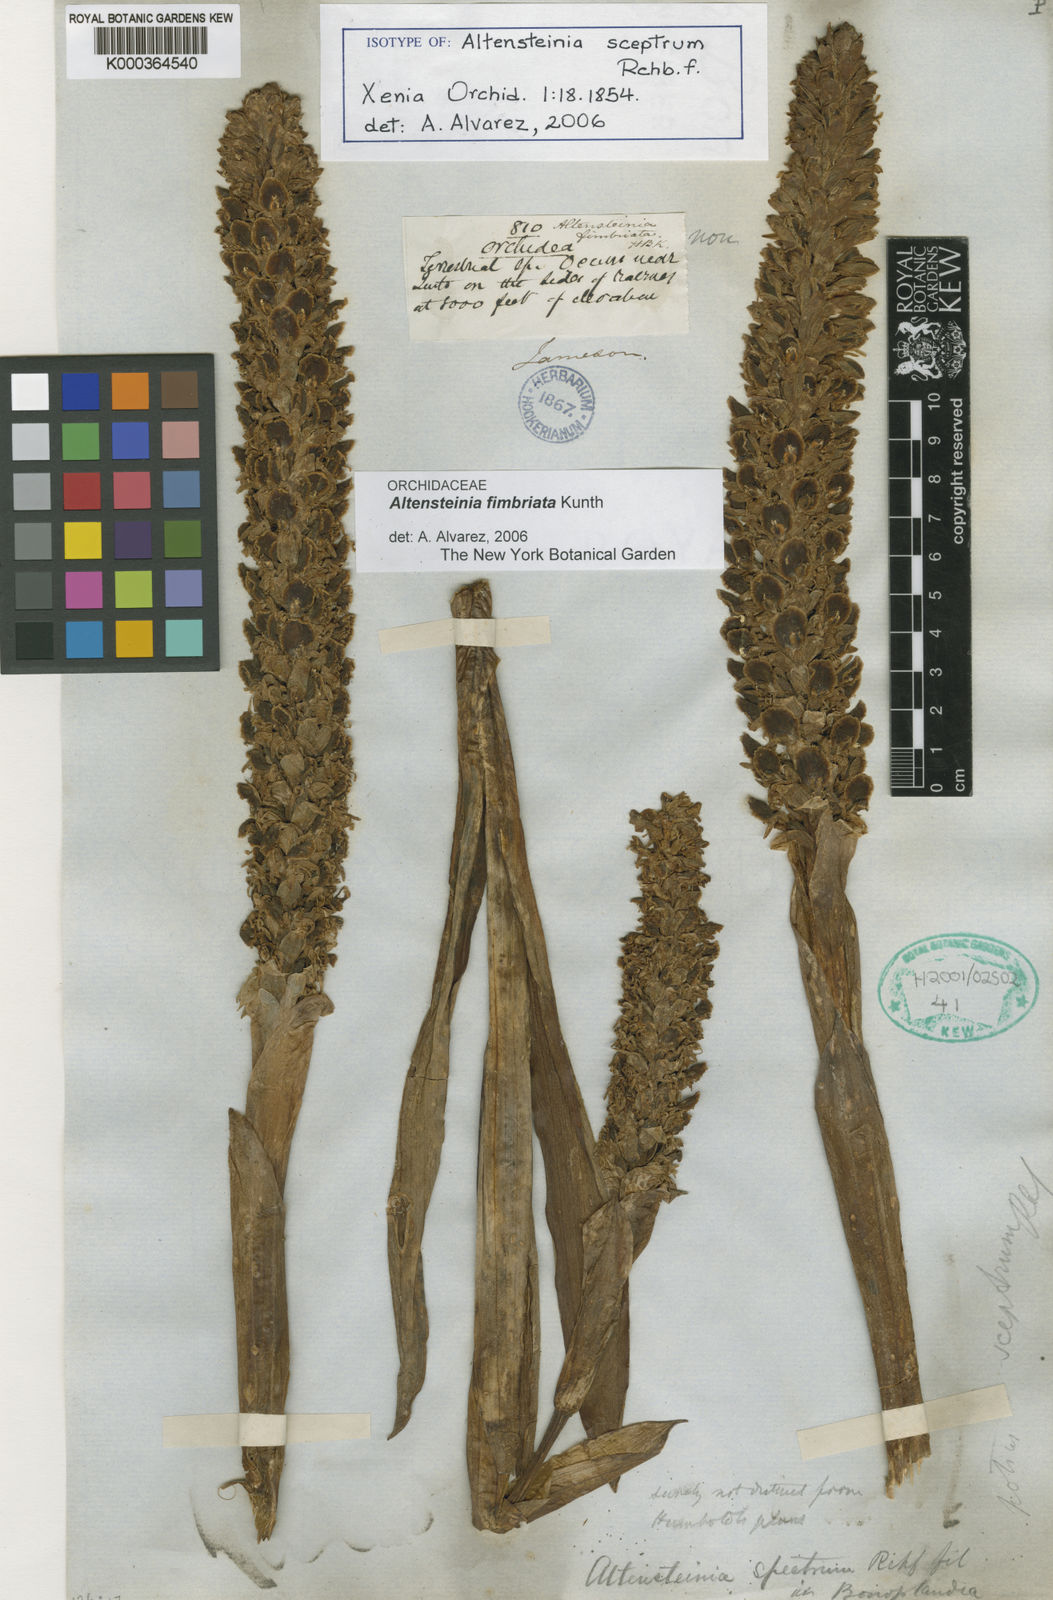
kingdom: Plantae
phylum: Tracheophyta
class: Liliopsida
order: Asparagales
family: Orchidaceae
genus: Altensteinia
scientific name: Altensteinia fimbriata
